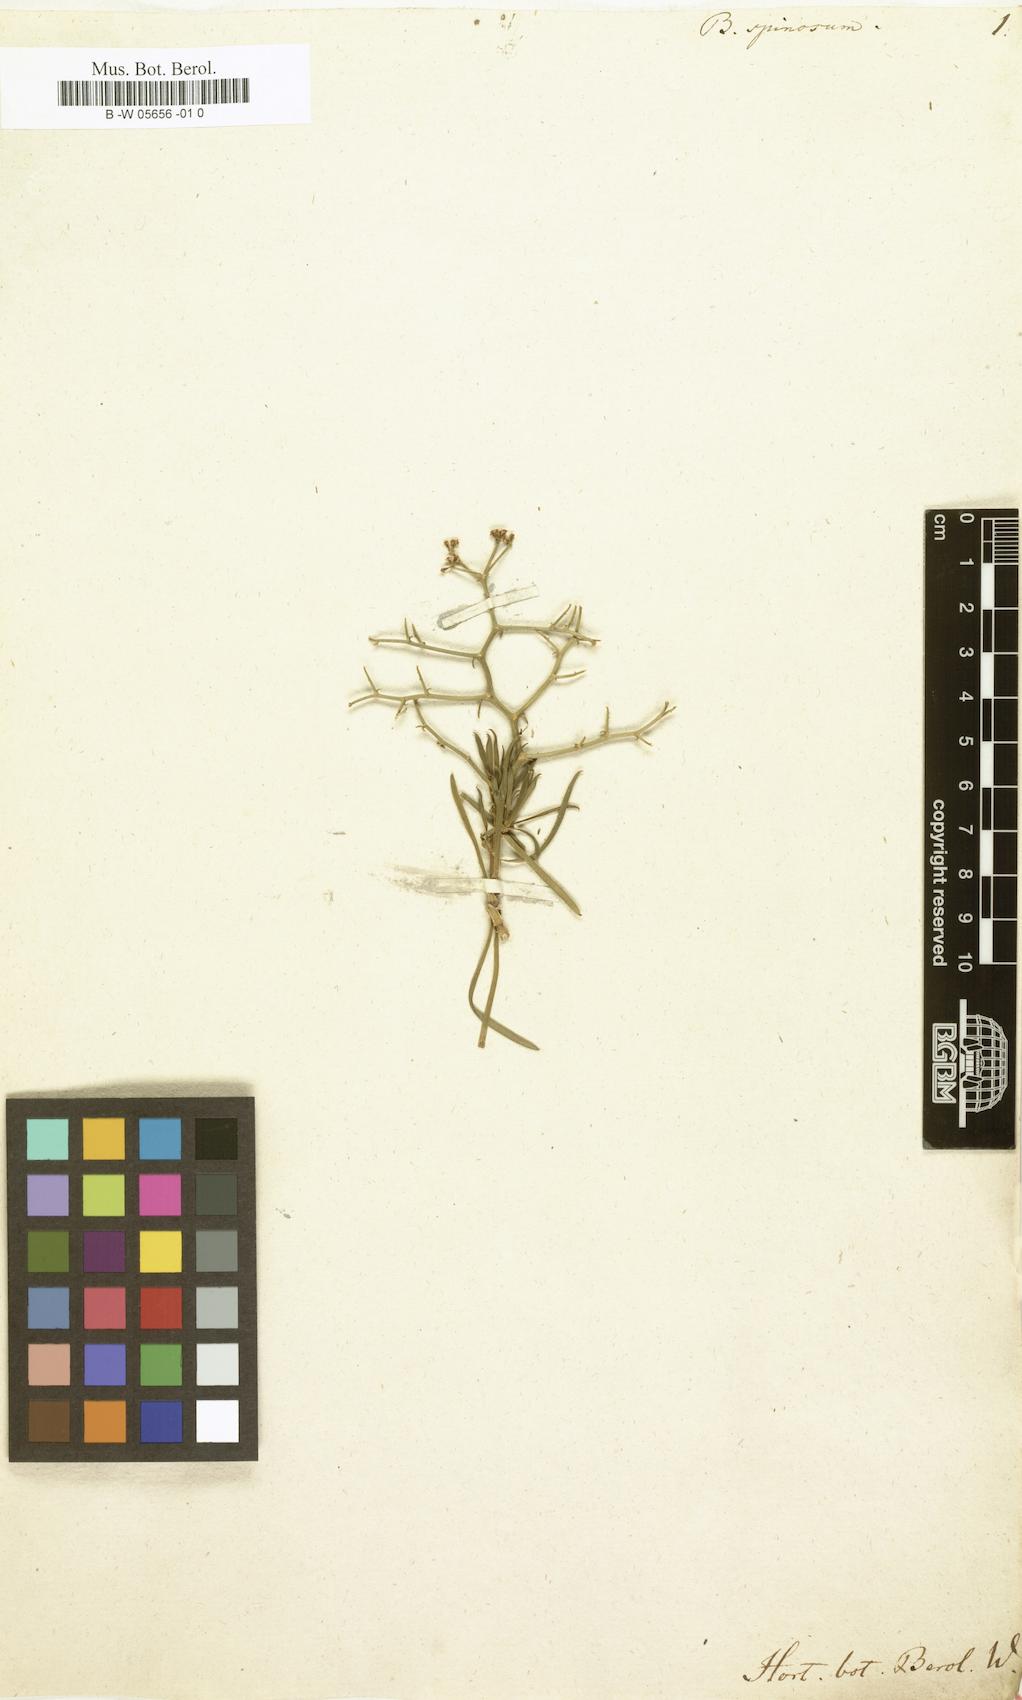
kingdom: Plantae
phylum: Tracheophyta
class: Magnoliopsida
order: Apiales
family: Apiaceae
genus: Bupleurum
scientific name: Bupleurum fruticescens
